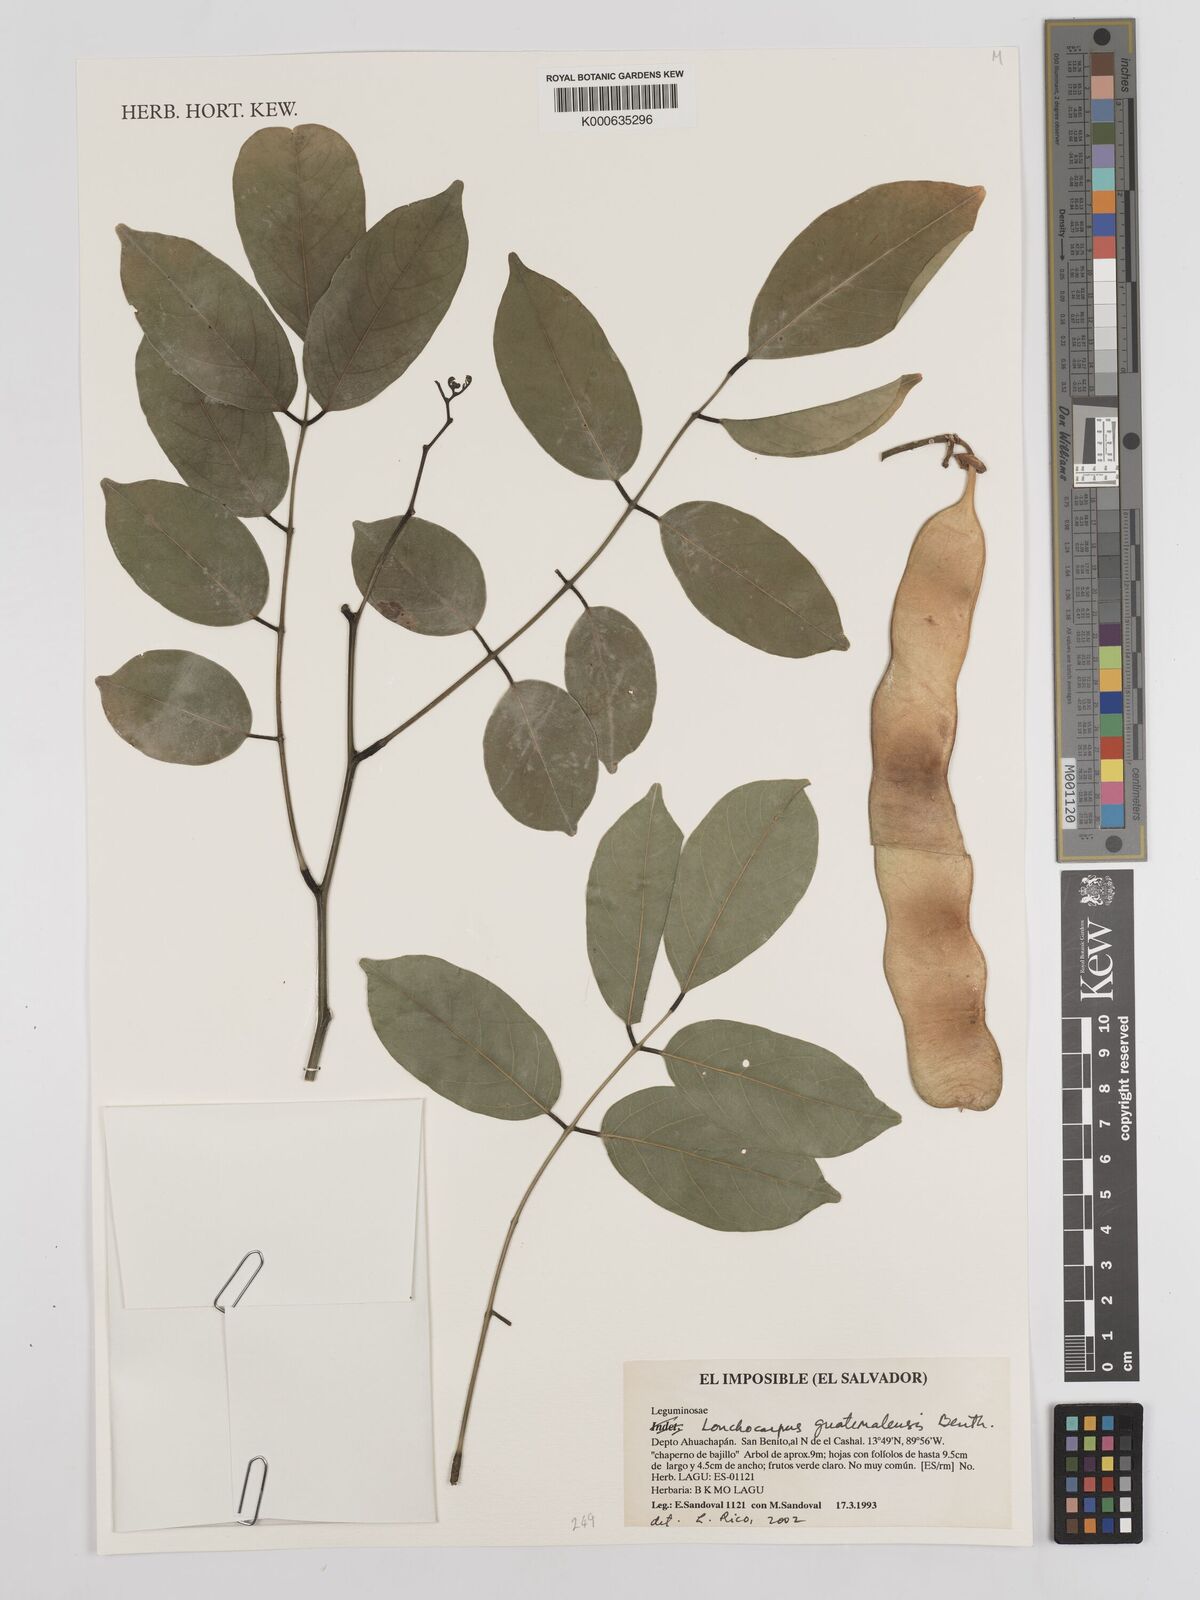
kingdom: Plantae
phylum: Tracheophyta
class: Magnoliopsida
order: Fabales
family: Fabaceae
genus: Lonchocarpus
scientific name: Lonchocarpus guatemalensis
